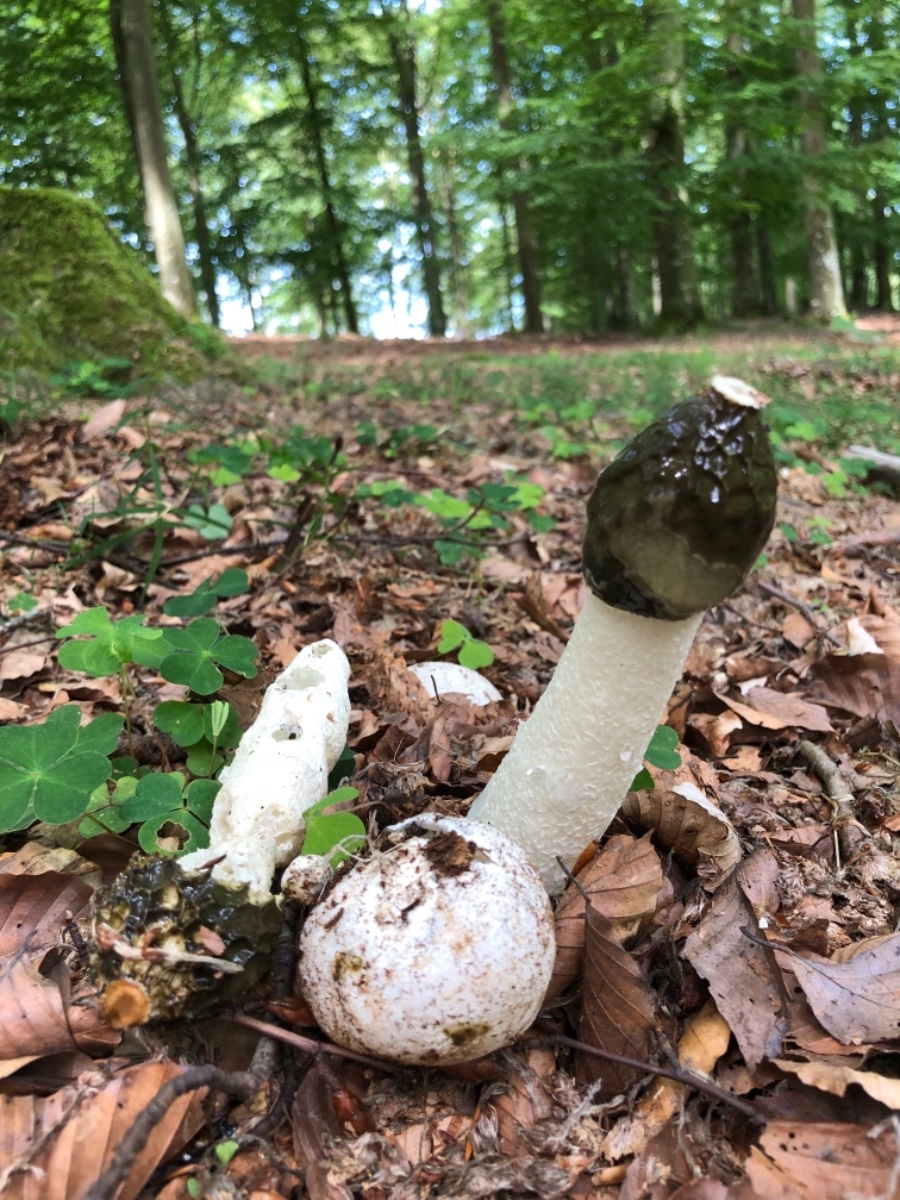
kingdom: Fungi
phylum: Basidiomycota
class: Agaricomycetes
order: Phallales
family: Phallaceae
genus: Phallus
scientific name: Phallus impudicus
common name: almindelig stinksvamp
